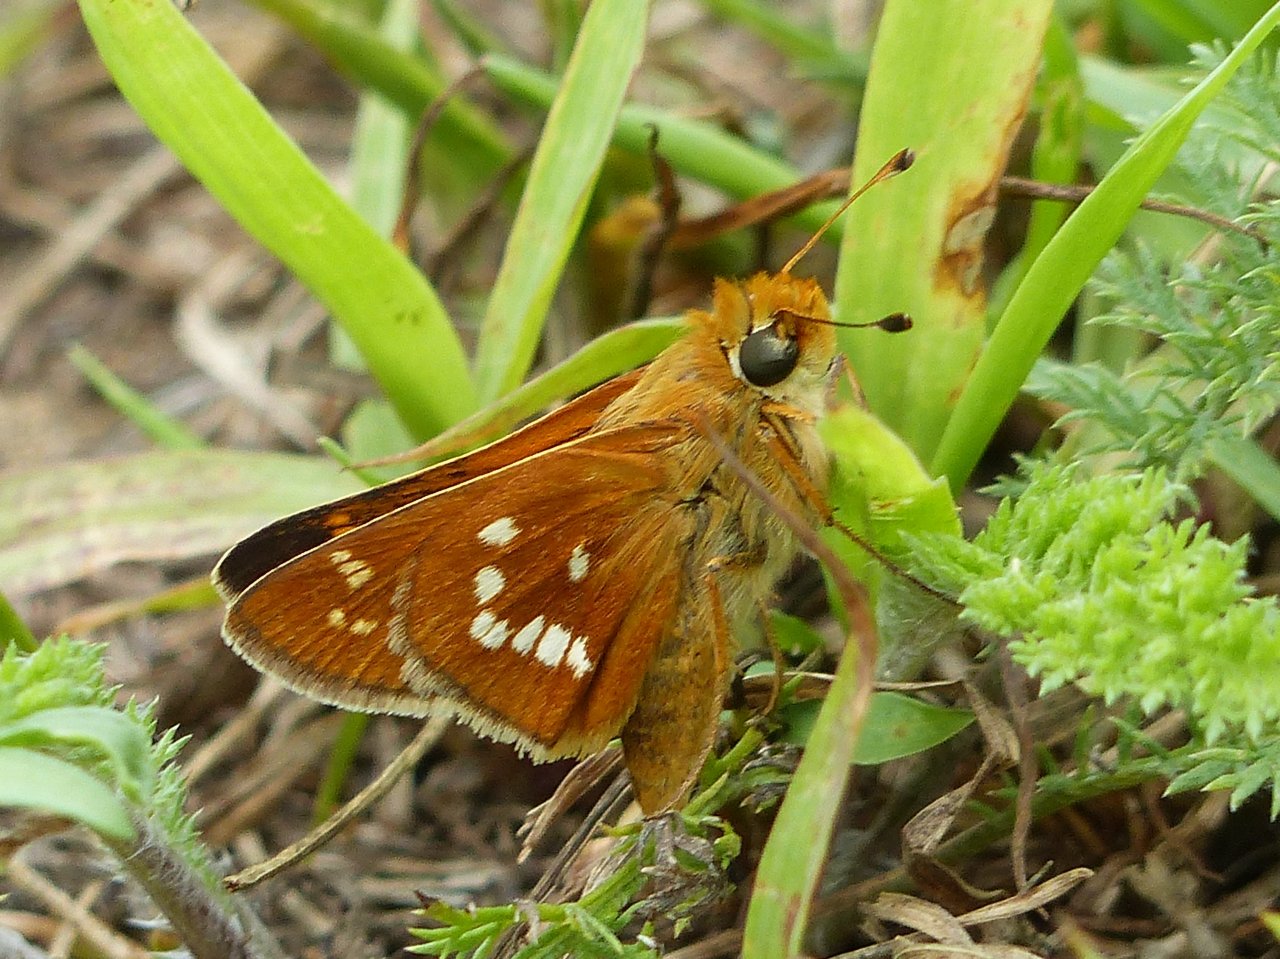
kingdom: Animalia
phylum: Arthropoda
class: Insecta
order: Lepidoptera
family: Hesperiidae
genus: Hesperia
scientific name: Hesperia leonardus
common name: Leonard's Skipper
